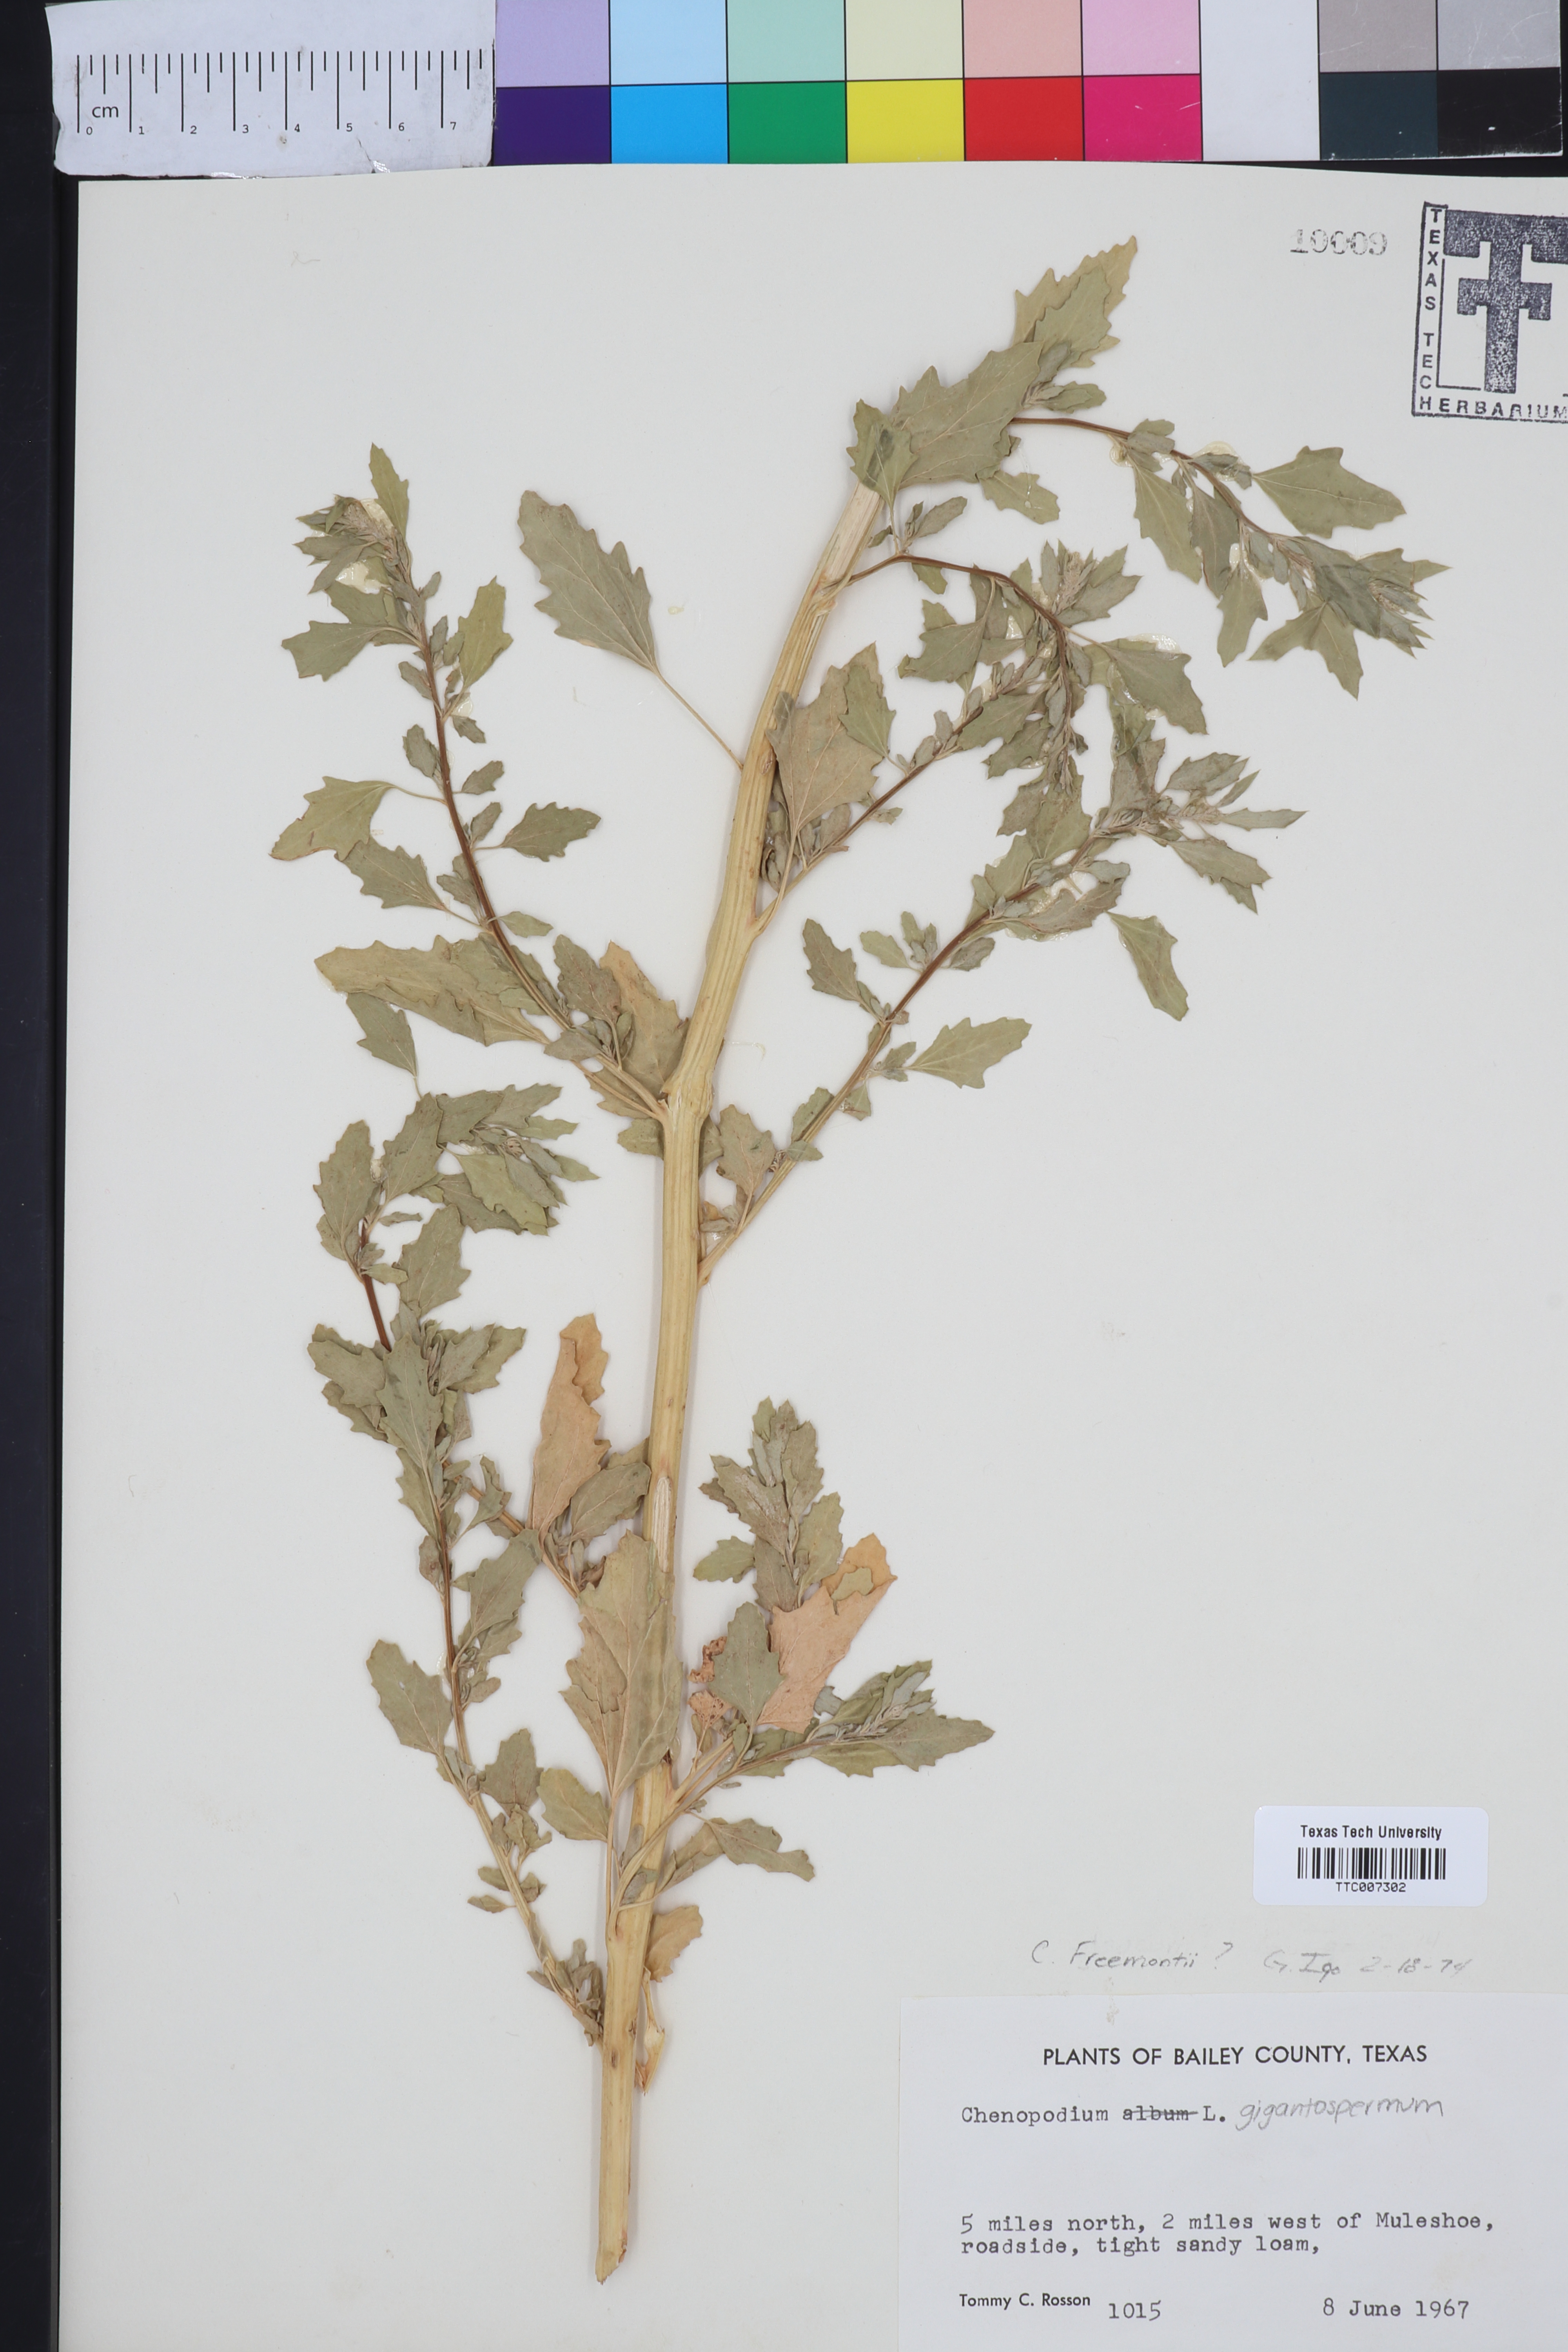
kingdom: Plantae
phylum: Tracheophyta
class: Magnoliopsida
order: Caryophyllales
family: Amaranthaceae
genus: Chenopodium
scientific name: Chenopodium fremontii
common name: Fremont's goosefoot
